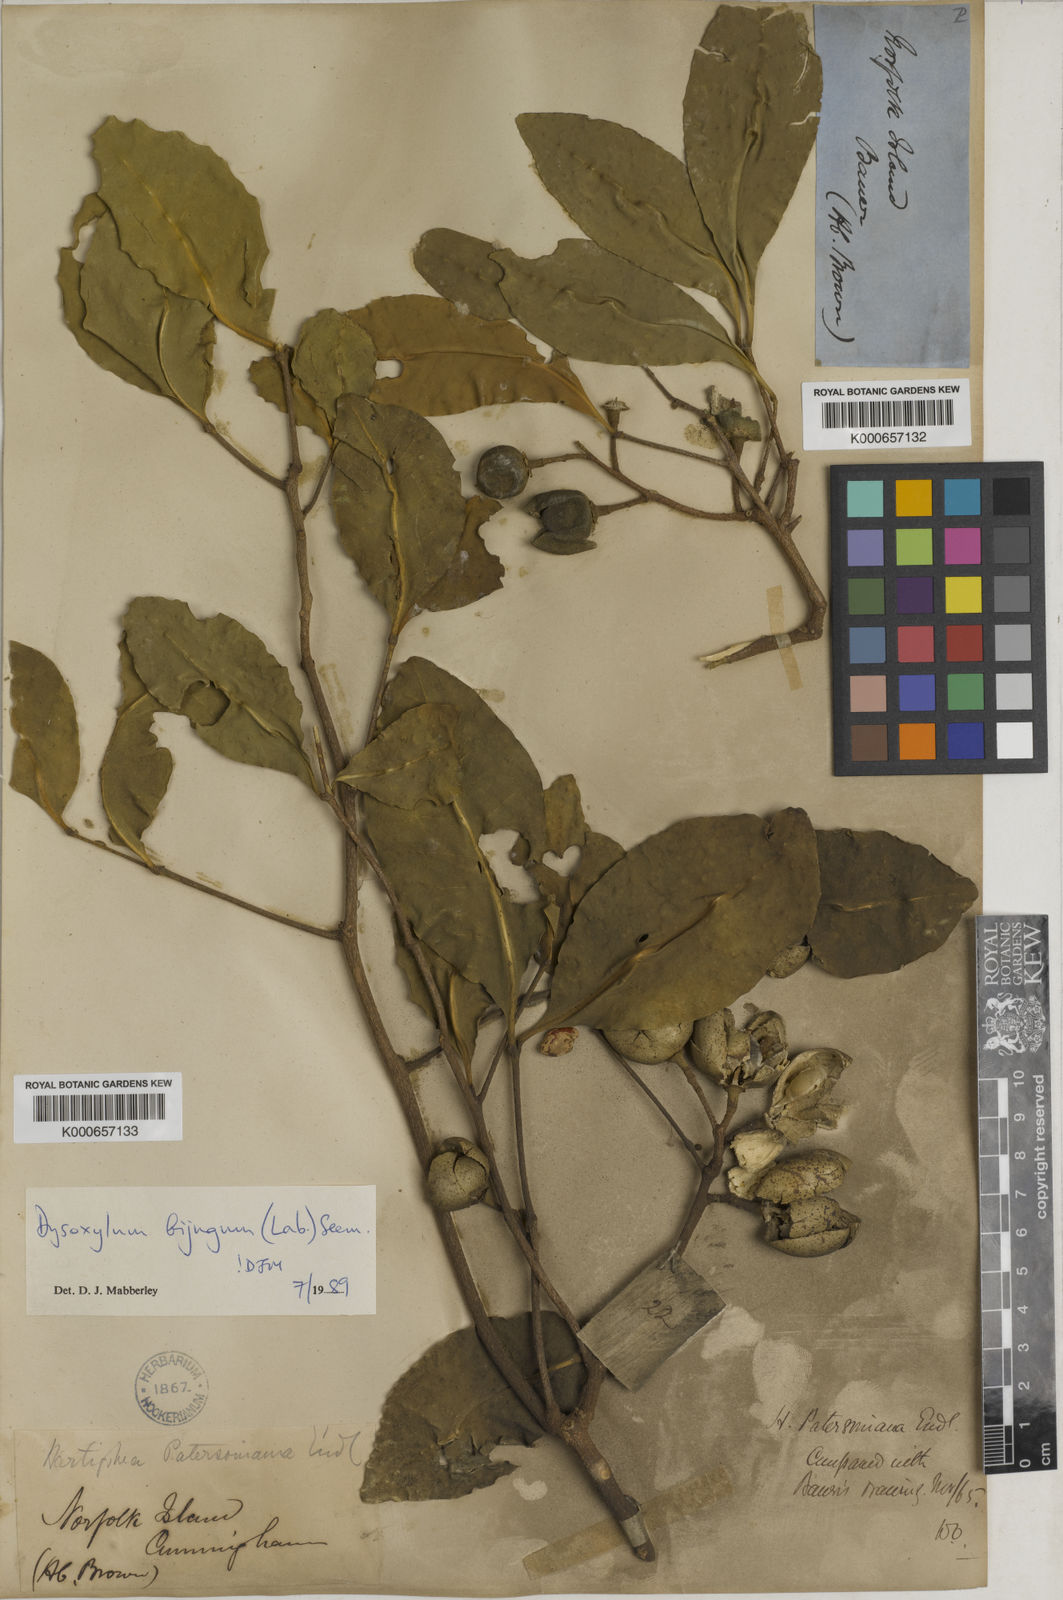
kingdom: Plantae
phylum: Tracheophyta
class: Magnoliopsida
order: Sapindales
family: Meliaceae
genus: Didymocheton
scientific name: Didymocheton bijugus
